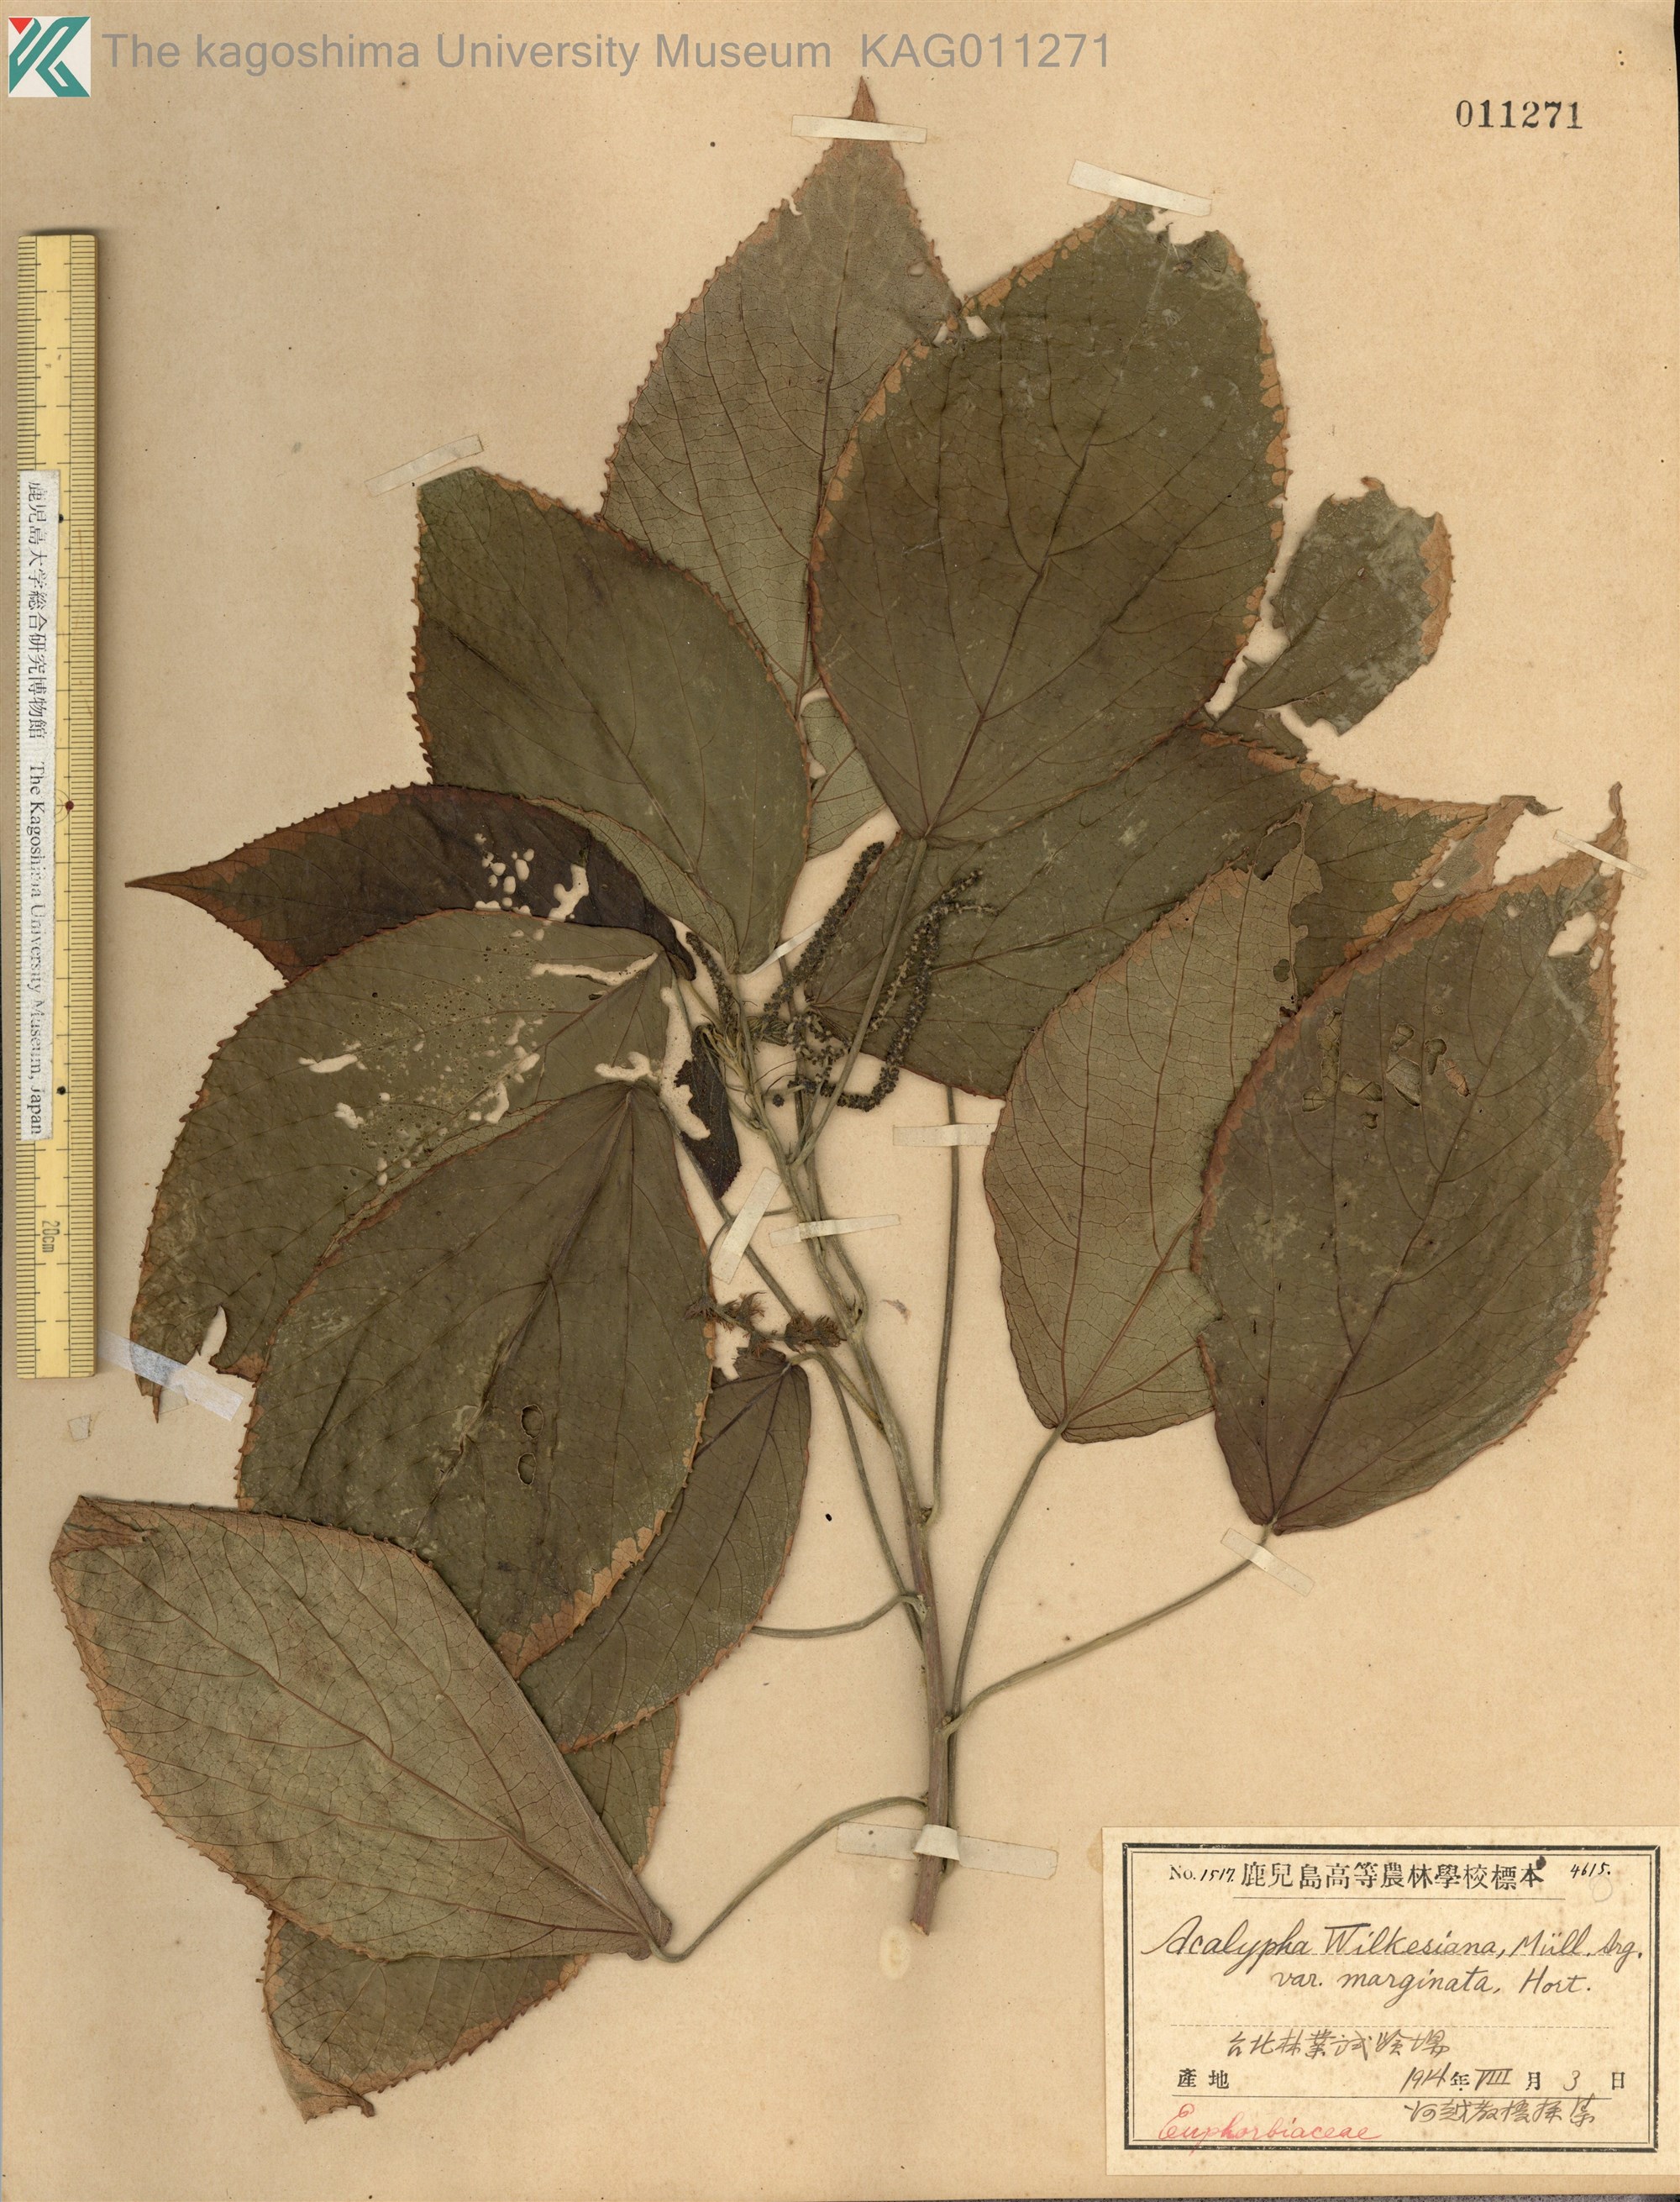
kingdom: Plantae
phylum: Tracheophyta
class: Magnoliopsida
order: Malpighiales
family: Euphorbiaceae
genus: Acalypha
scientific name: Acalypha wilkesiana
